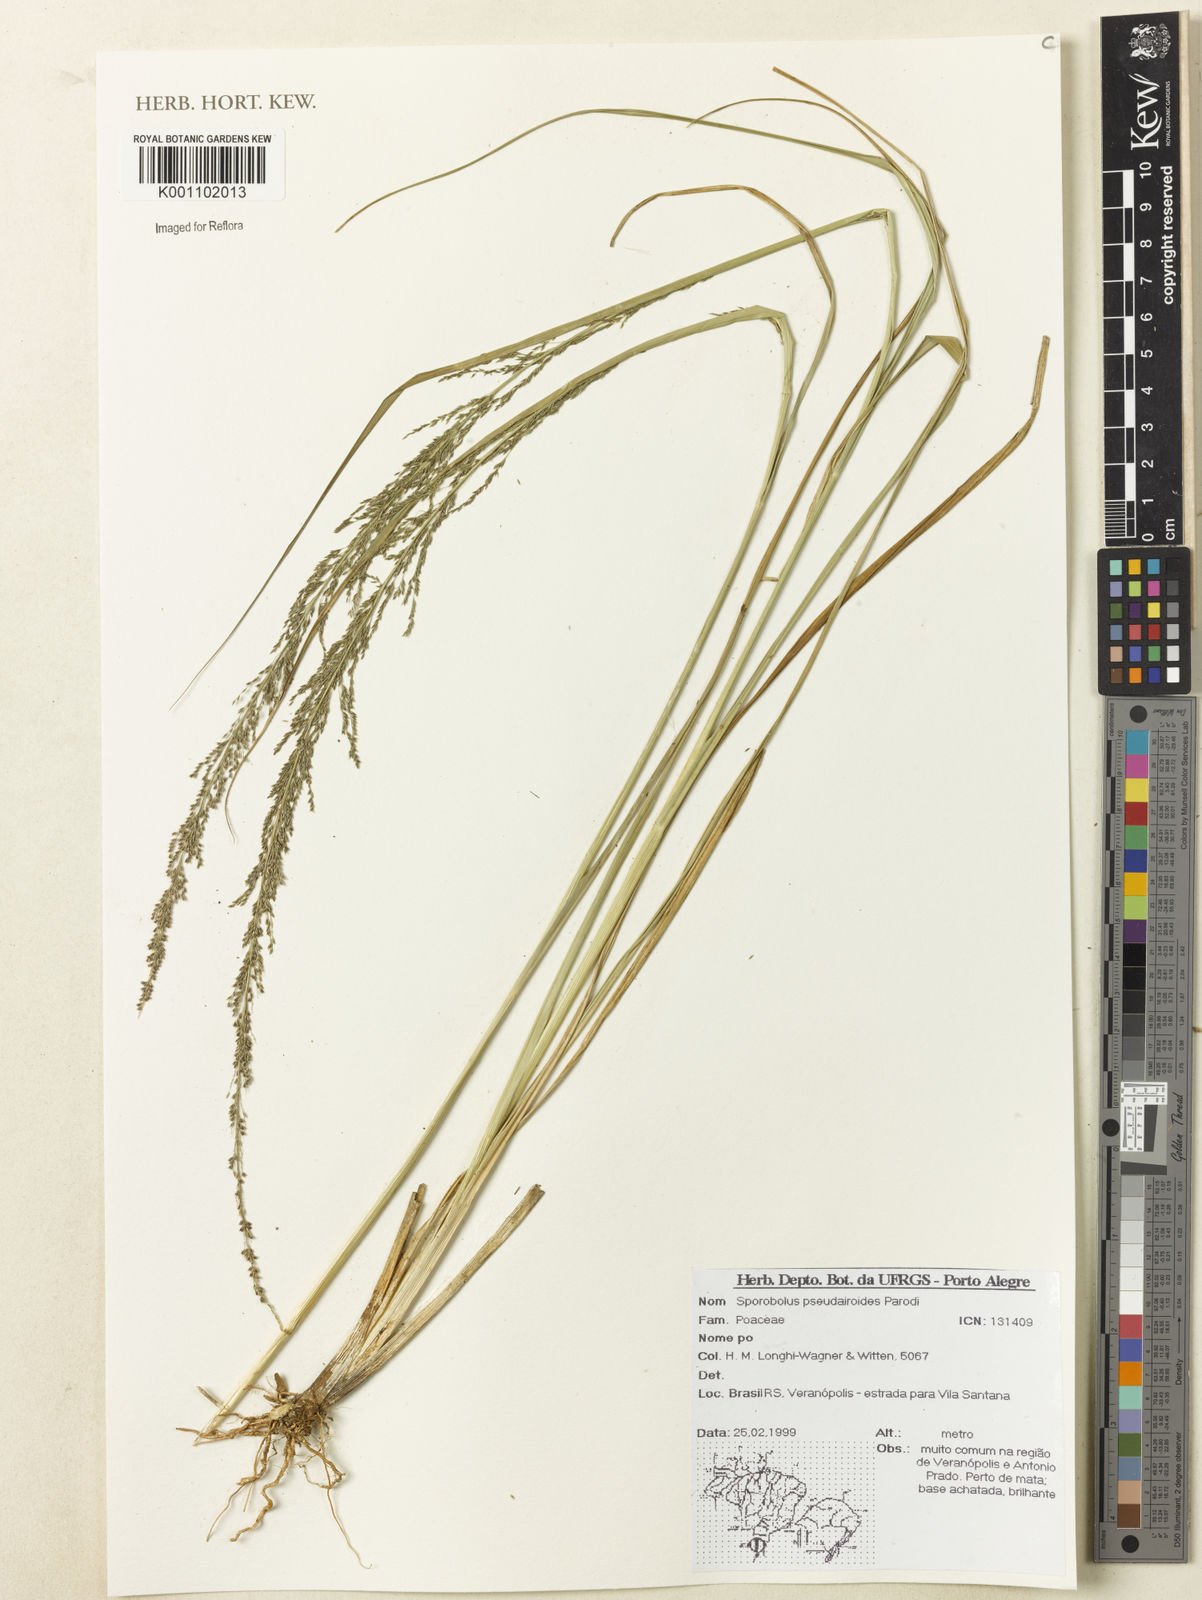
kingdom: Plantae
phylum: Tracheophyta
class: Liliopsida
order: Poales
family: Poaceae
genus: Sporobolus
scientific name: Sporobolus pseudairoides
